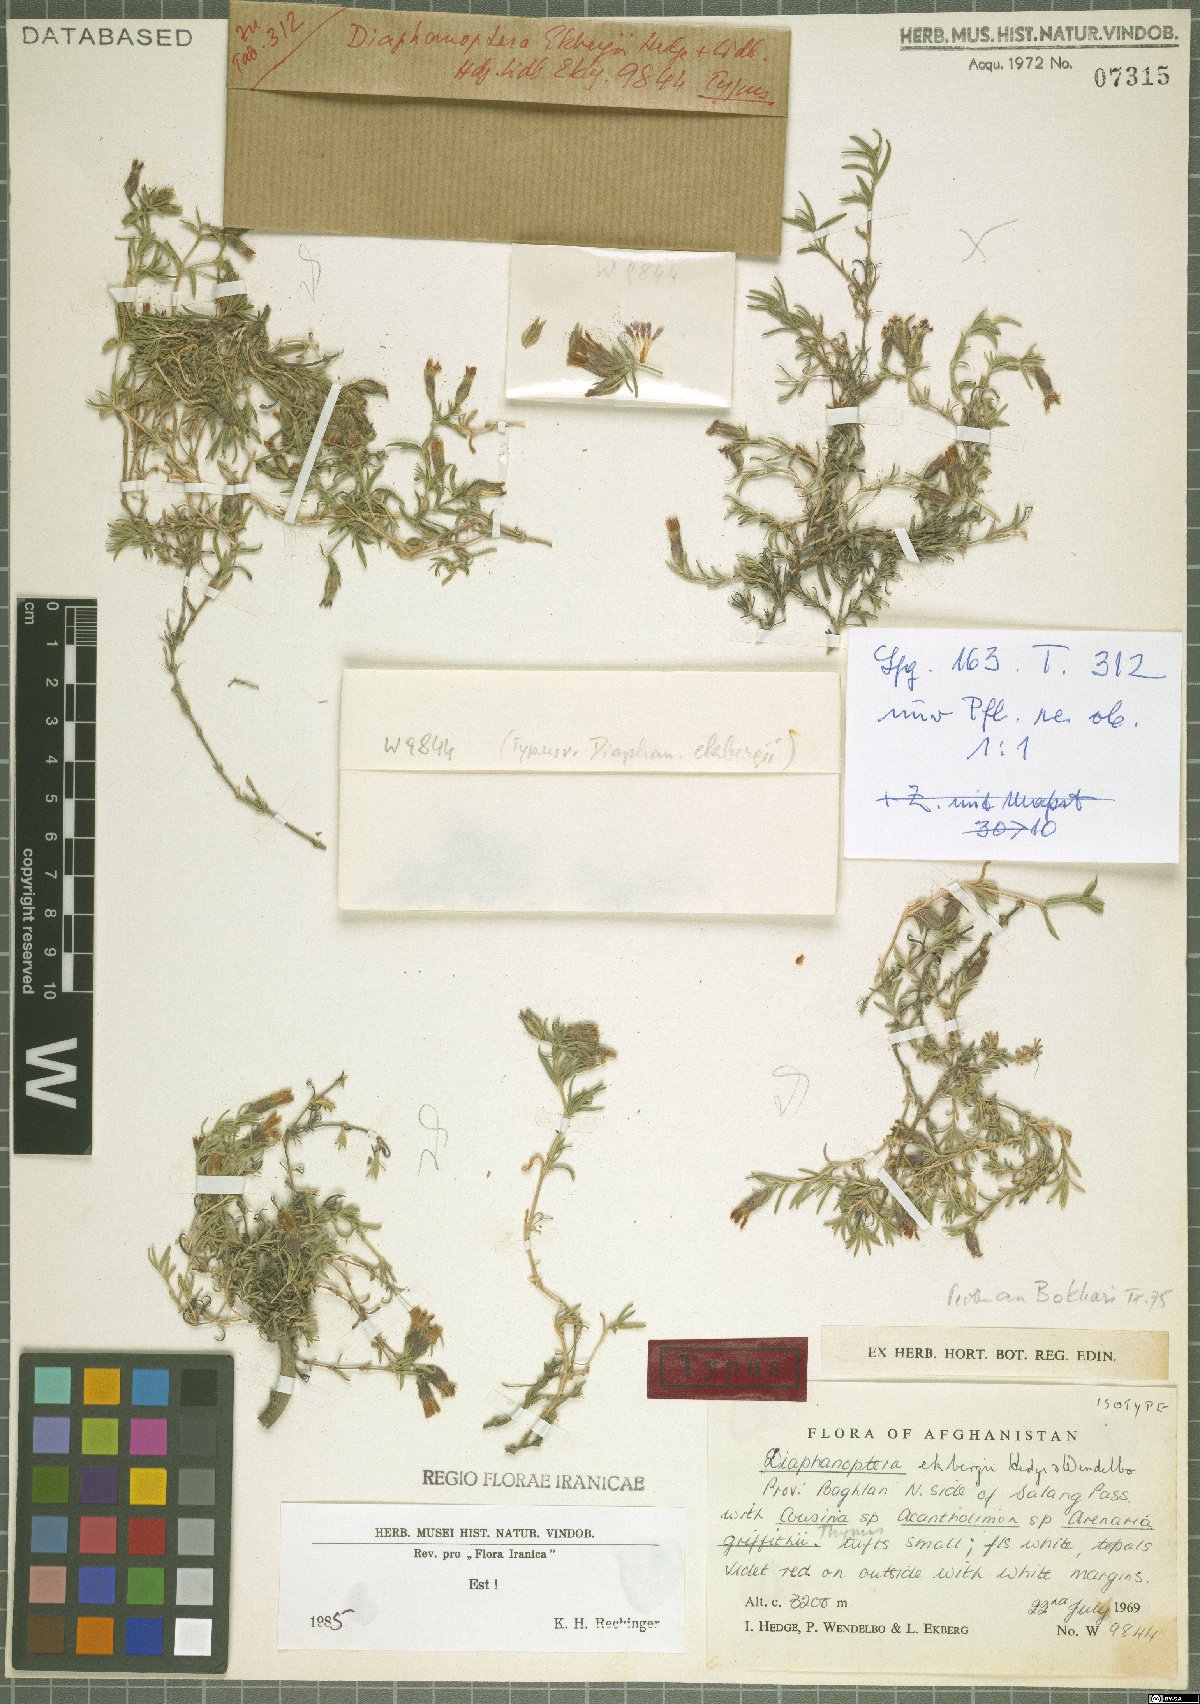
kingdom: Plantae
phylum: Tracheophyta
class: Magnoliopsida
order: Caryophyllales
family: Caryophyllaceae
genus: Acanthophyllum
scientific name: Acanthophyllum ekbergii
